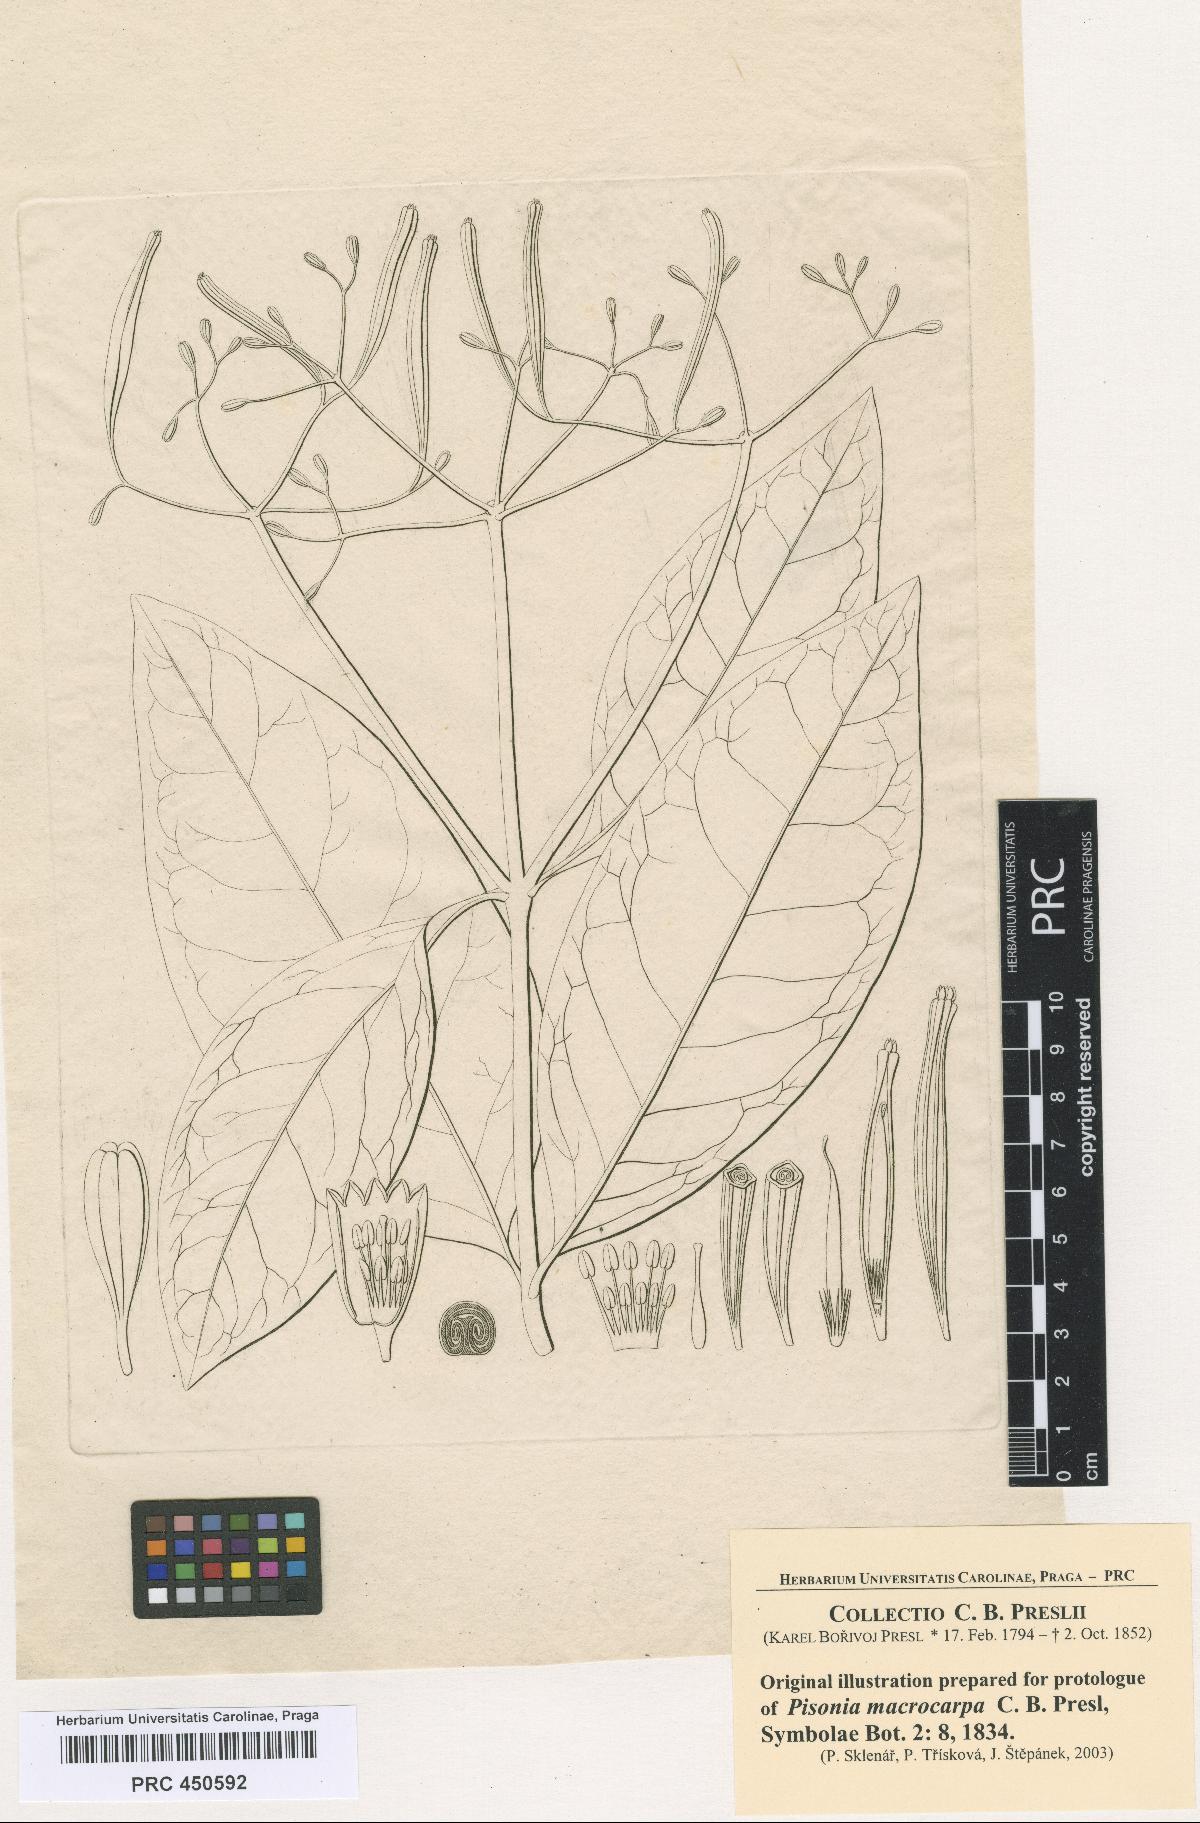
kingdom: Plantae
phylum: Tracheophyta
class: Magnoliopsida
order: Caryophyllales
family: Nyctaginaceae
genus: Ceodes
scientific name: Ceodes umbellifera
